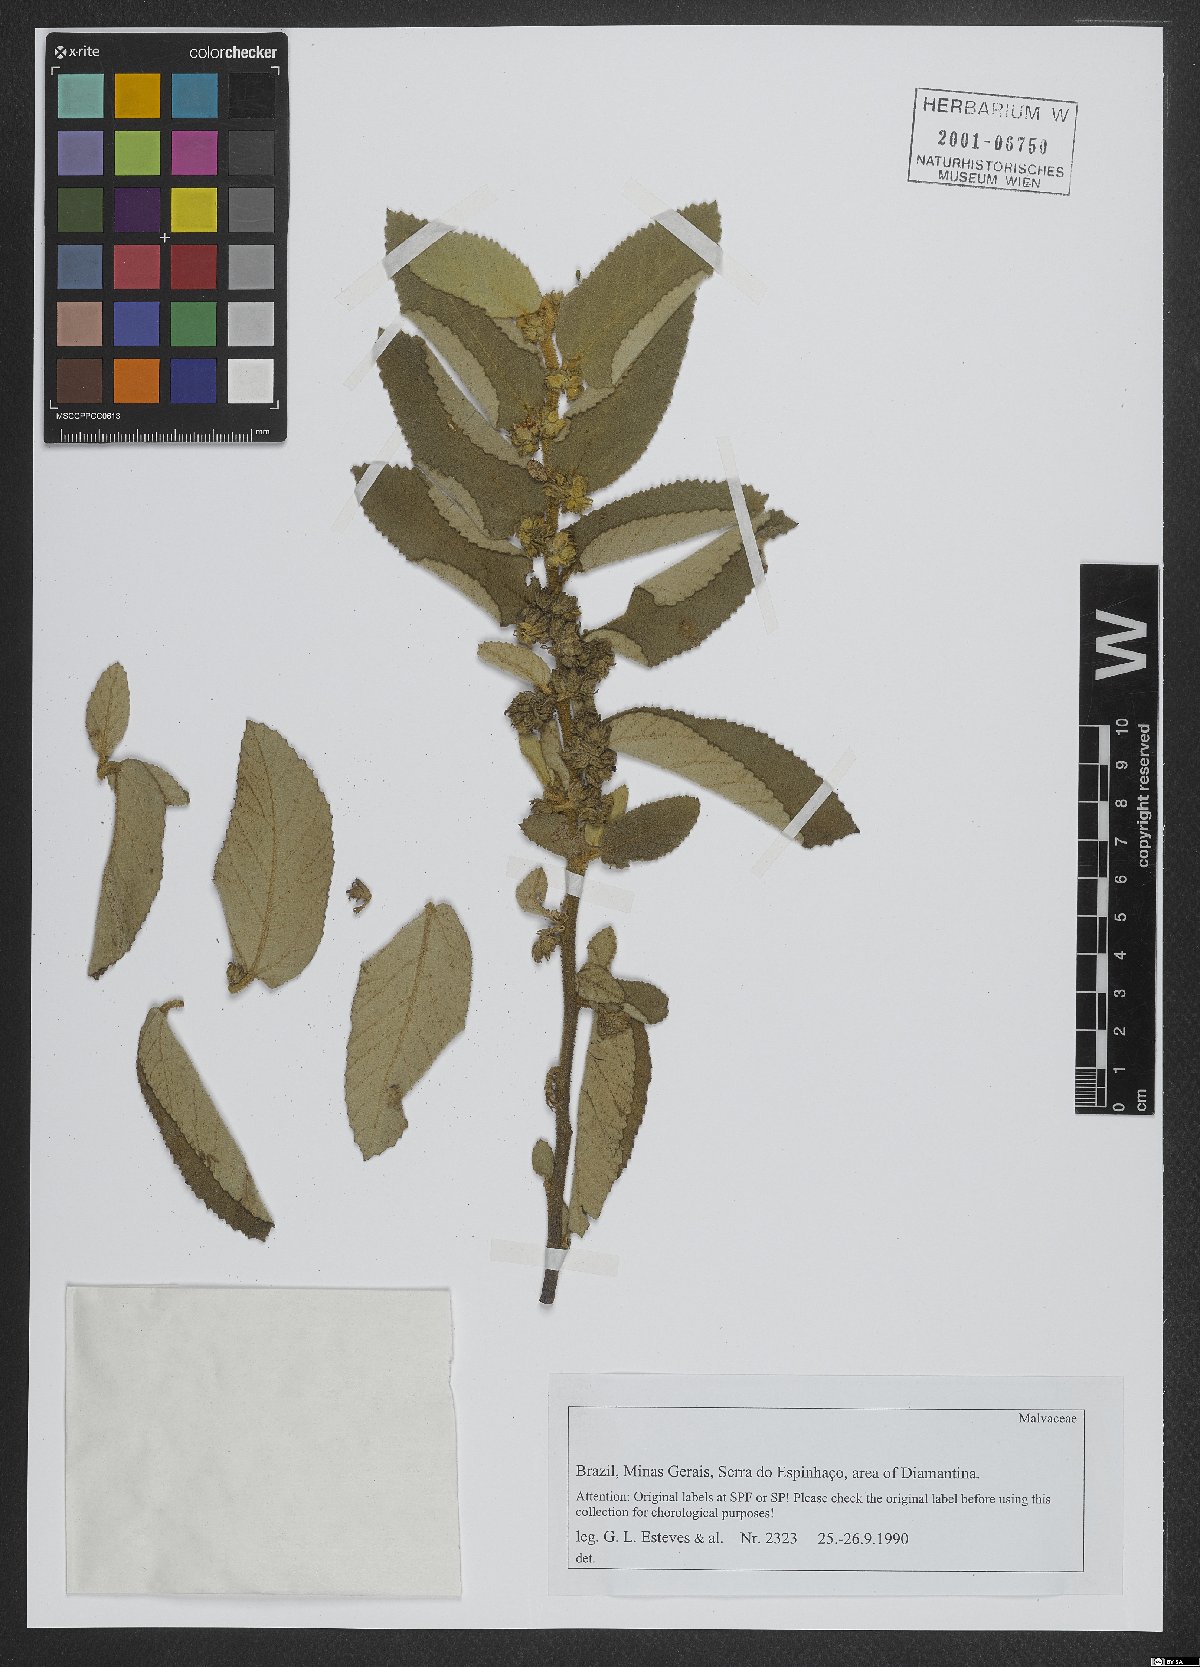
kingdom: Plantae
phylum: Tracheophyta
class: Magnoliopsida
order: Malvales
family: Malvaceae
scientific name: Malvaceae
